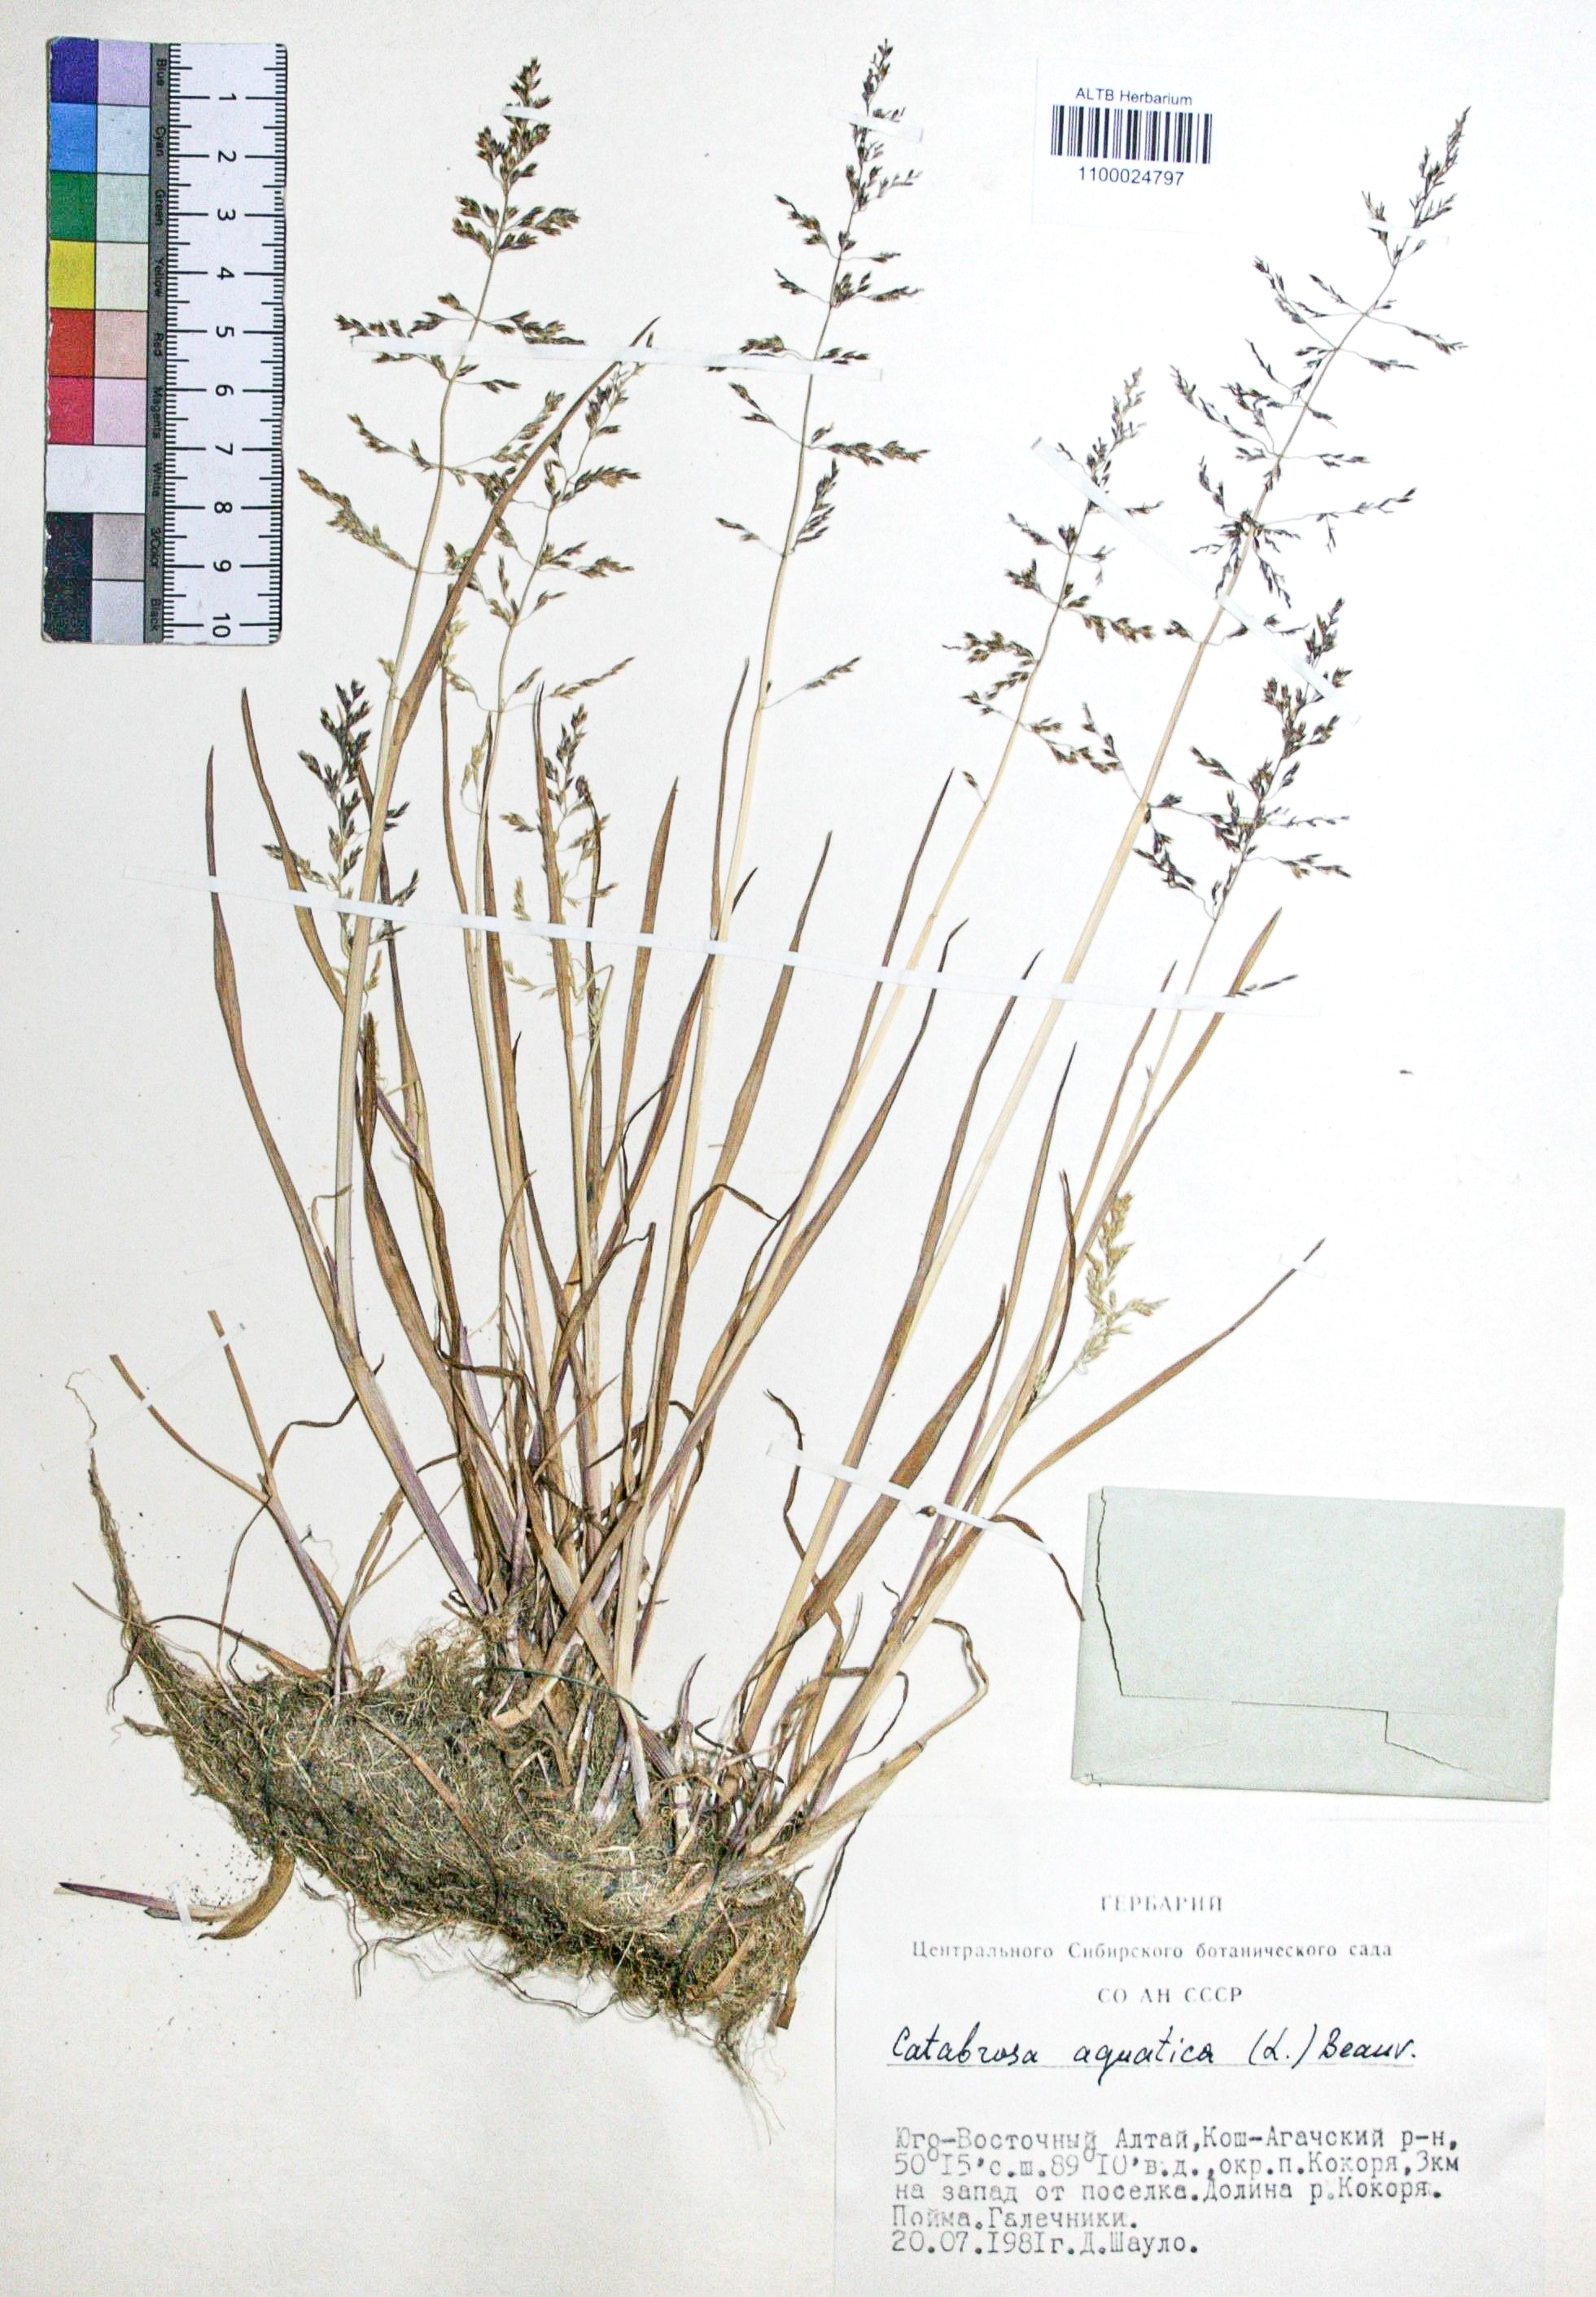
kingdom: Plantae
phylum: Tracheophyta
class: Liliopsida
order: Poales
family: Poaceae
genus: Catabrosa
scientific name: Catabrosa drakensbergensis
